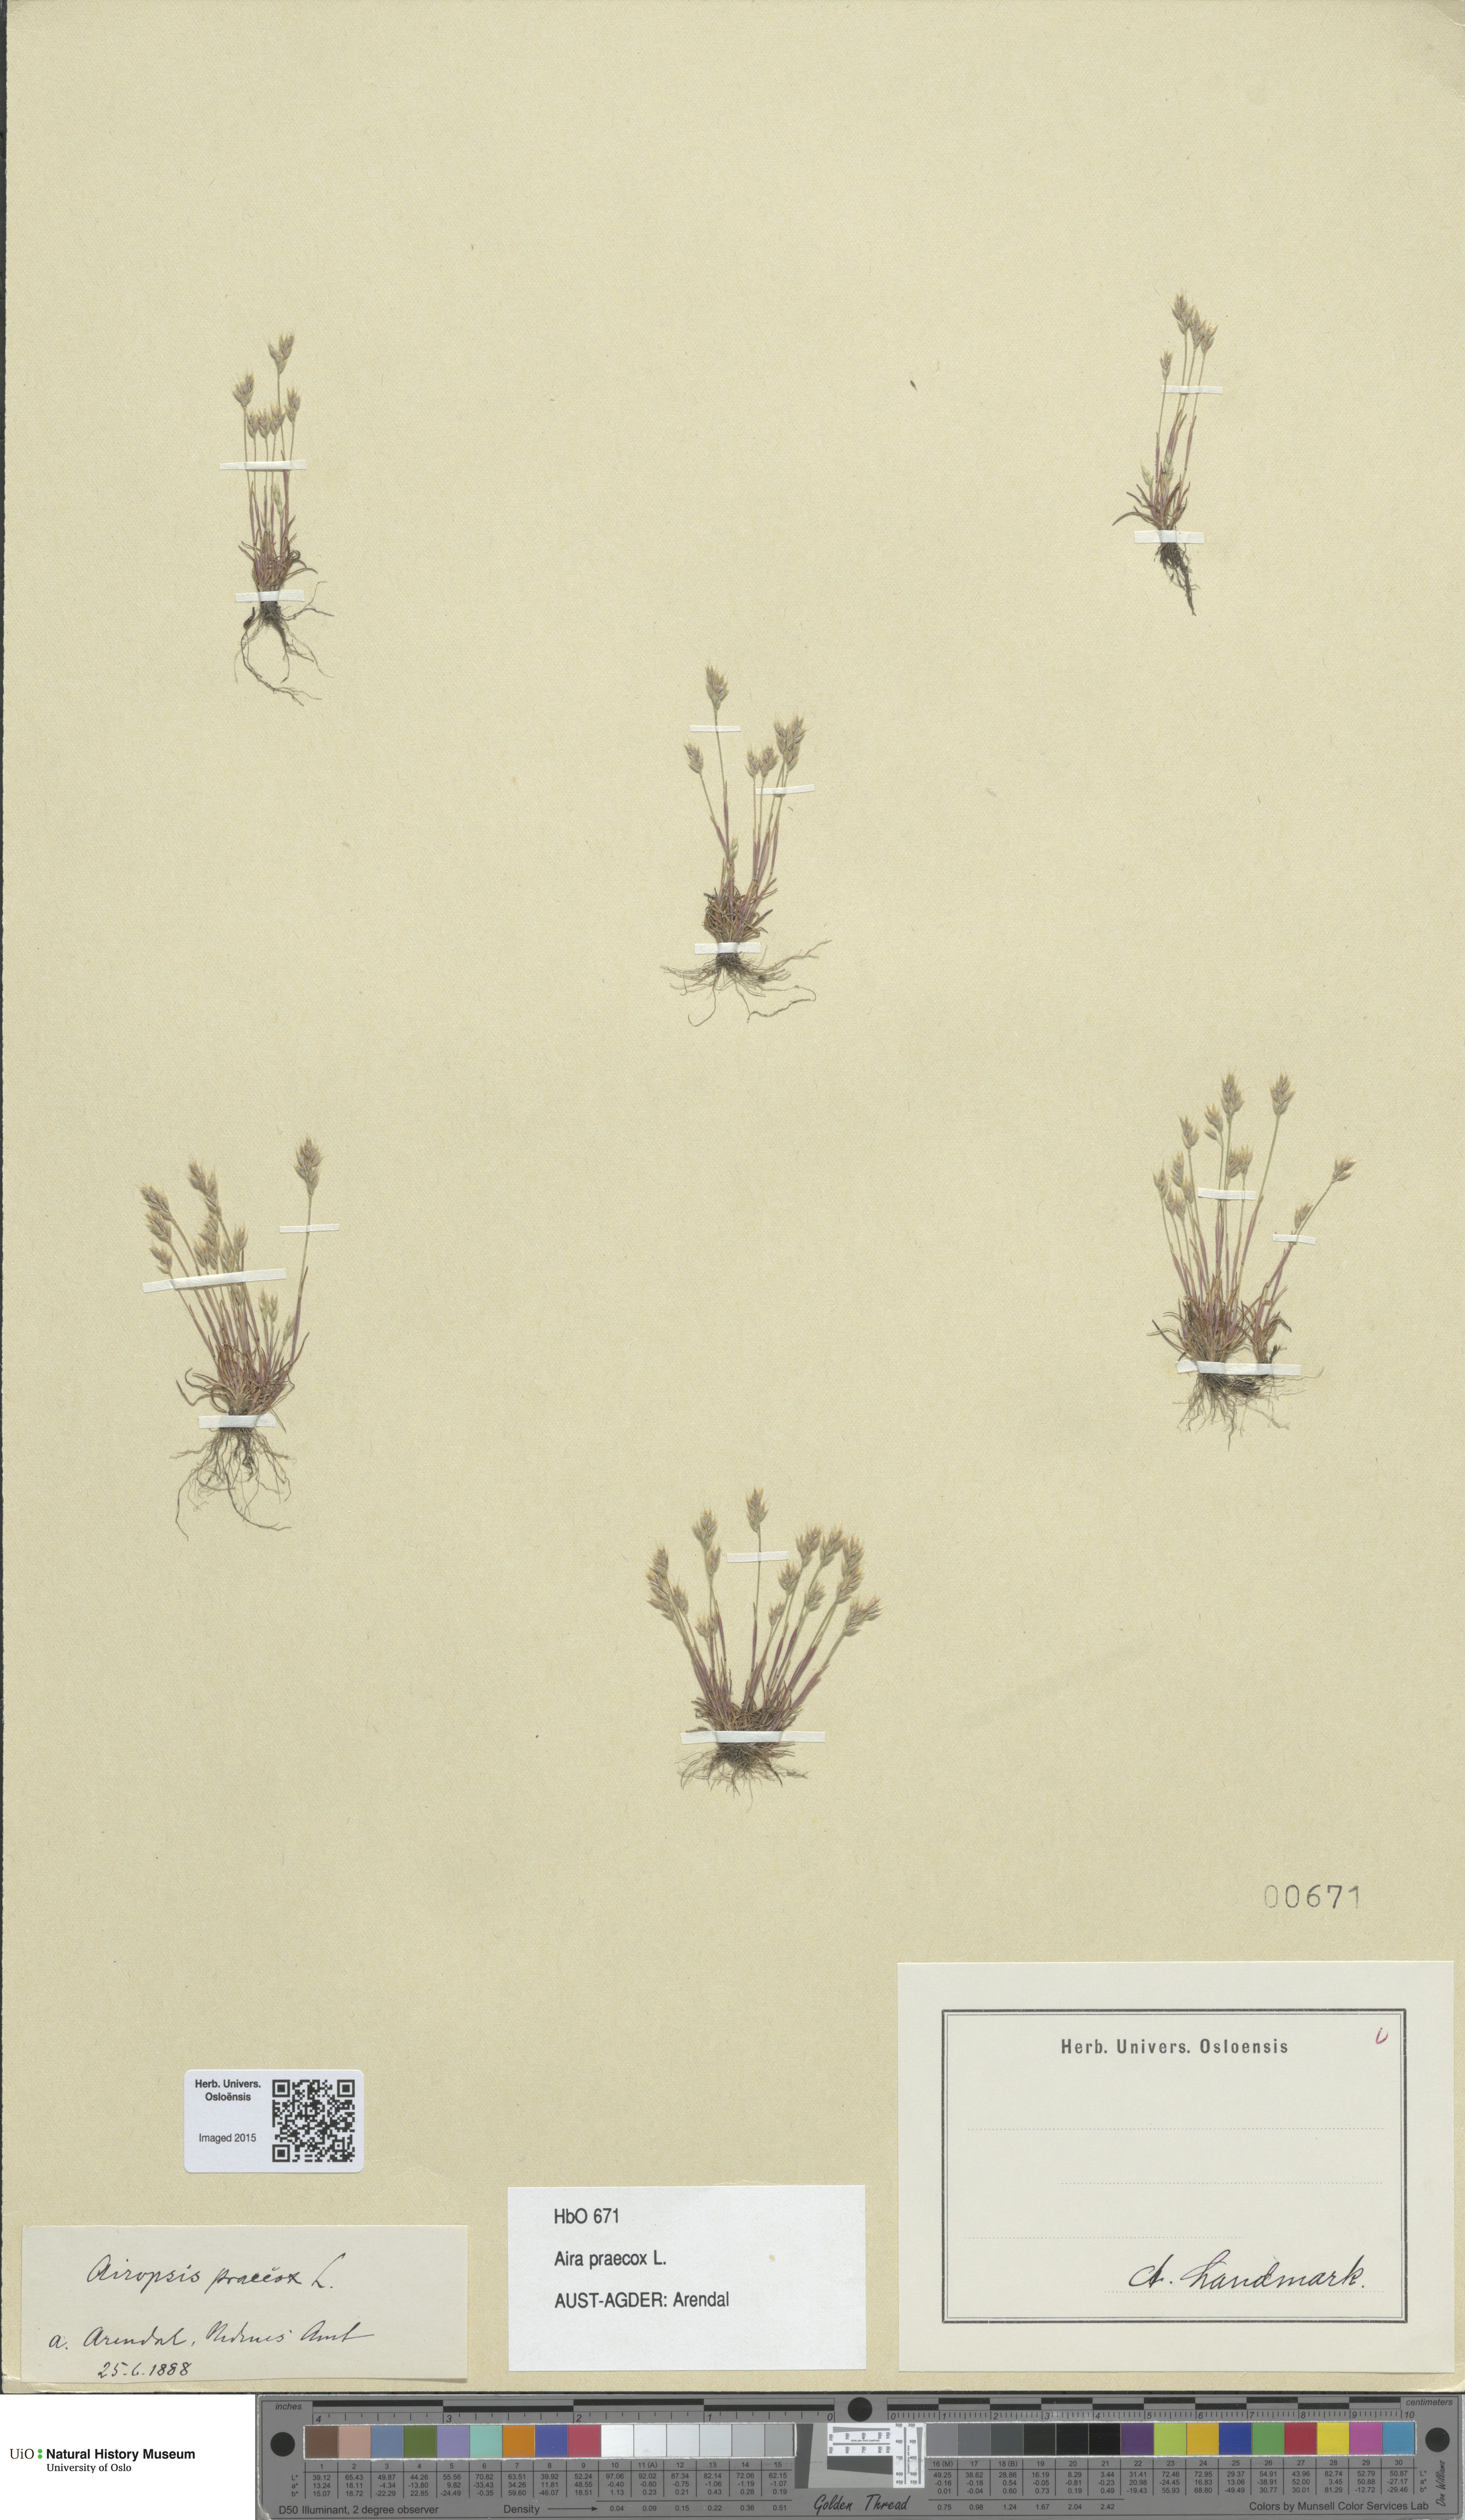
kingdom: Plantae
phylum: Tracheophyta
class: Liliopsida
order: Poales
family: Poaceae
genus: Aira
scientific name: Aira praecox
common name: Early hair-grass
